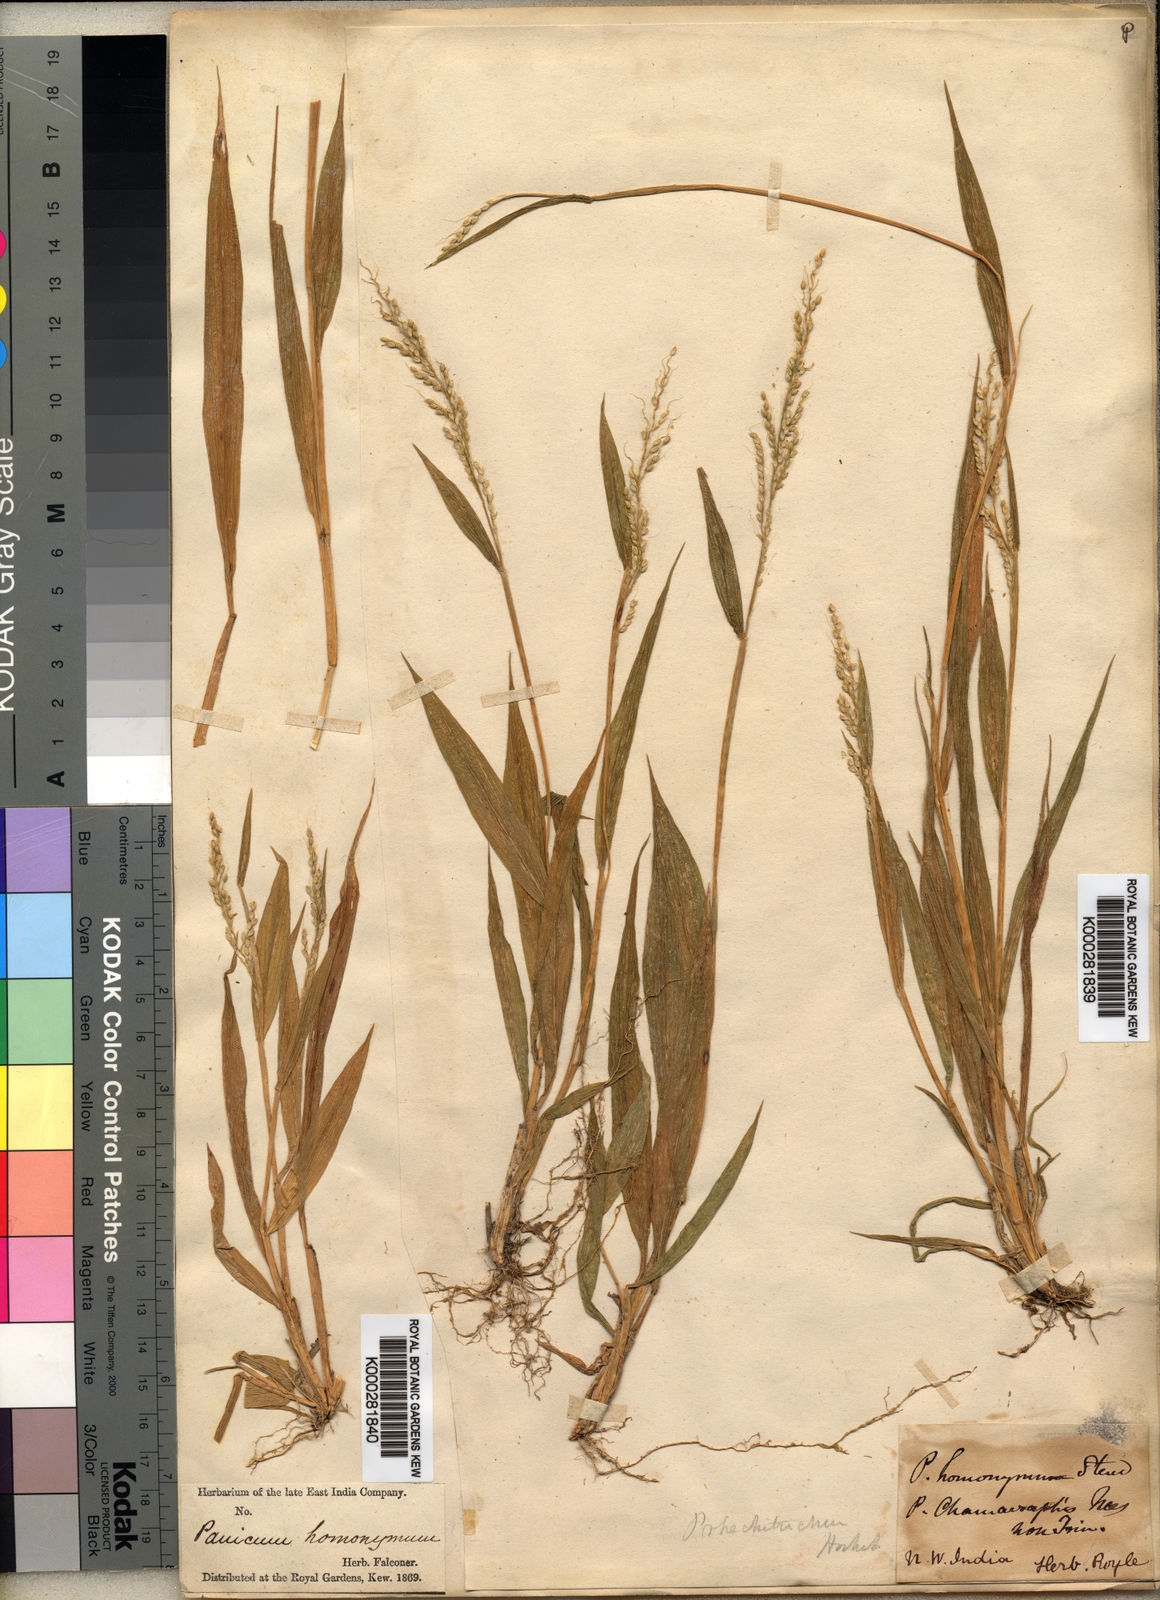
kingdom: Plantae
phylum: Tracheophyta
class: Liliopsida
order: Poales
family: Poaceae
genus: Setaria
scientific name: Setaria homonyma
